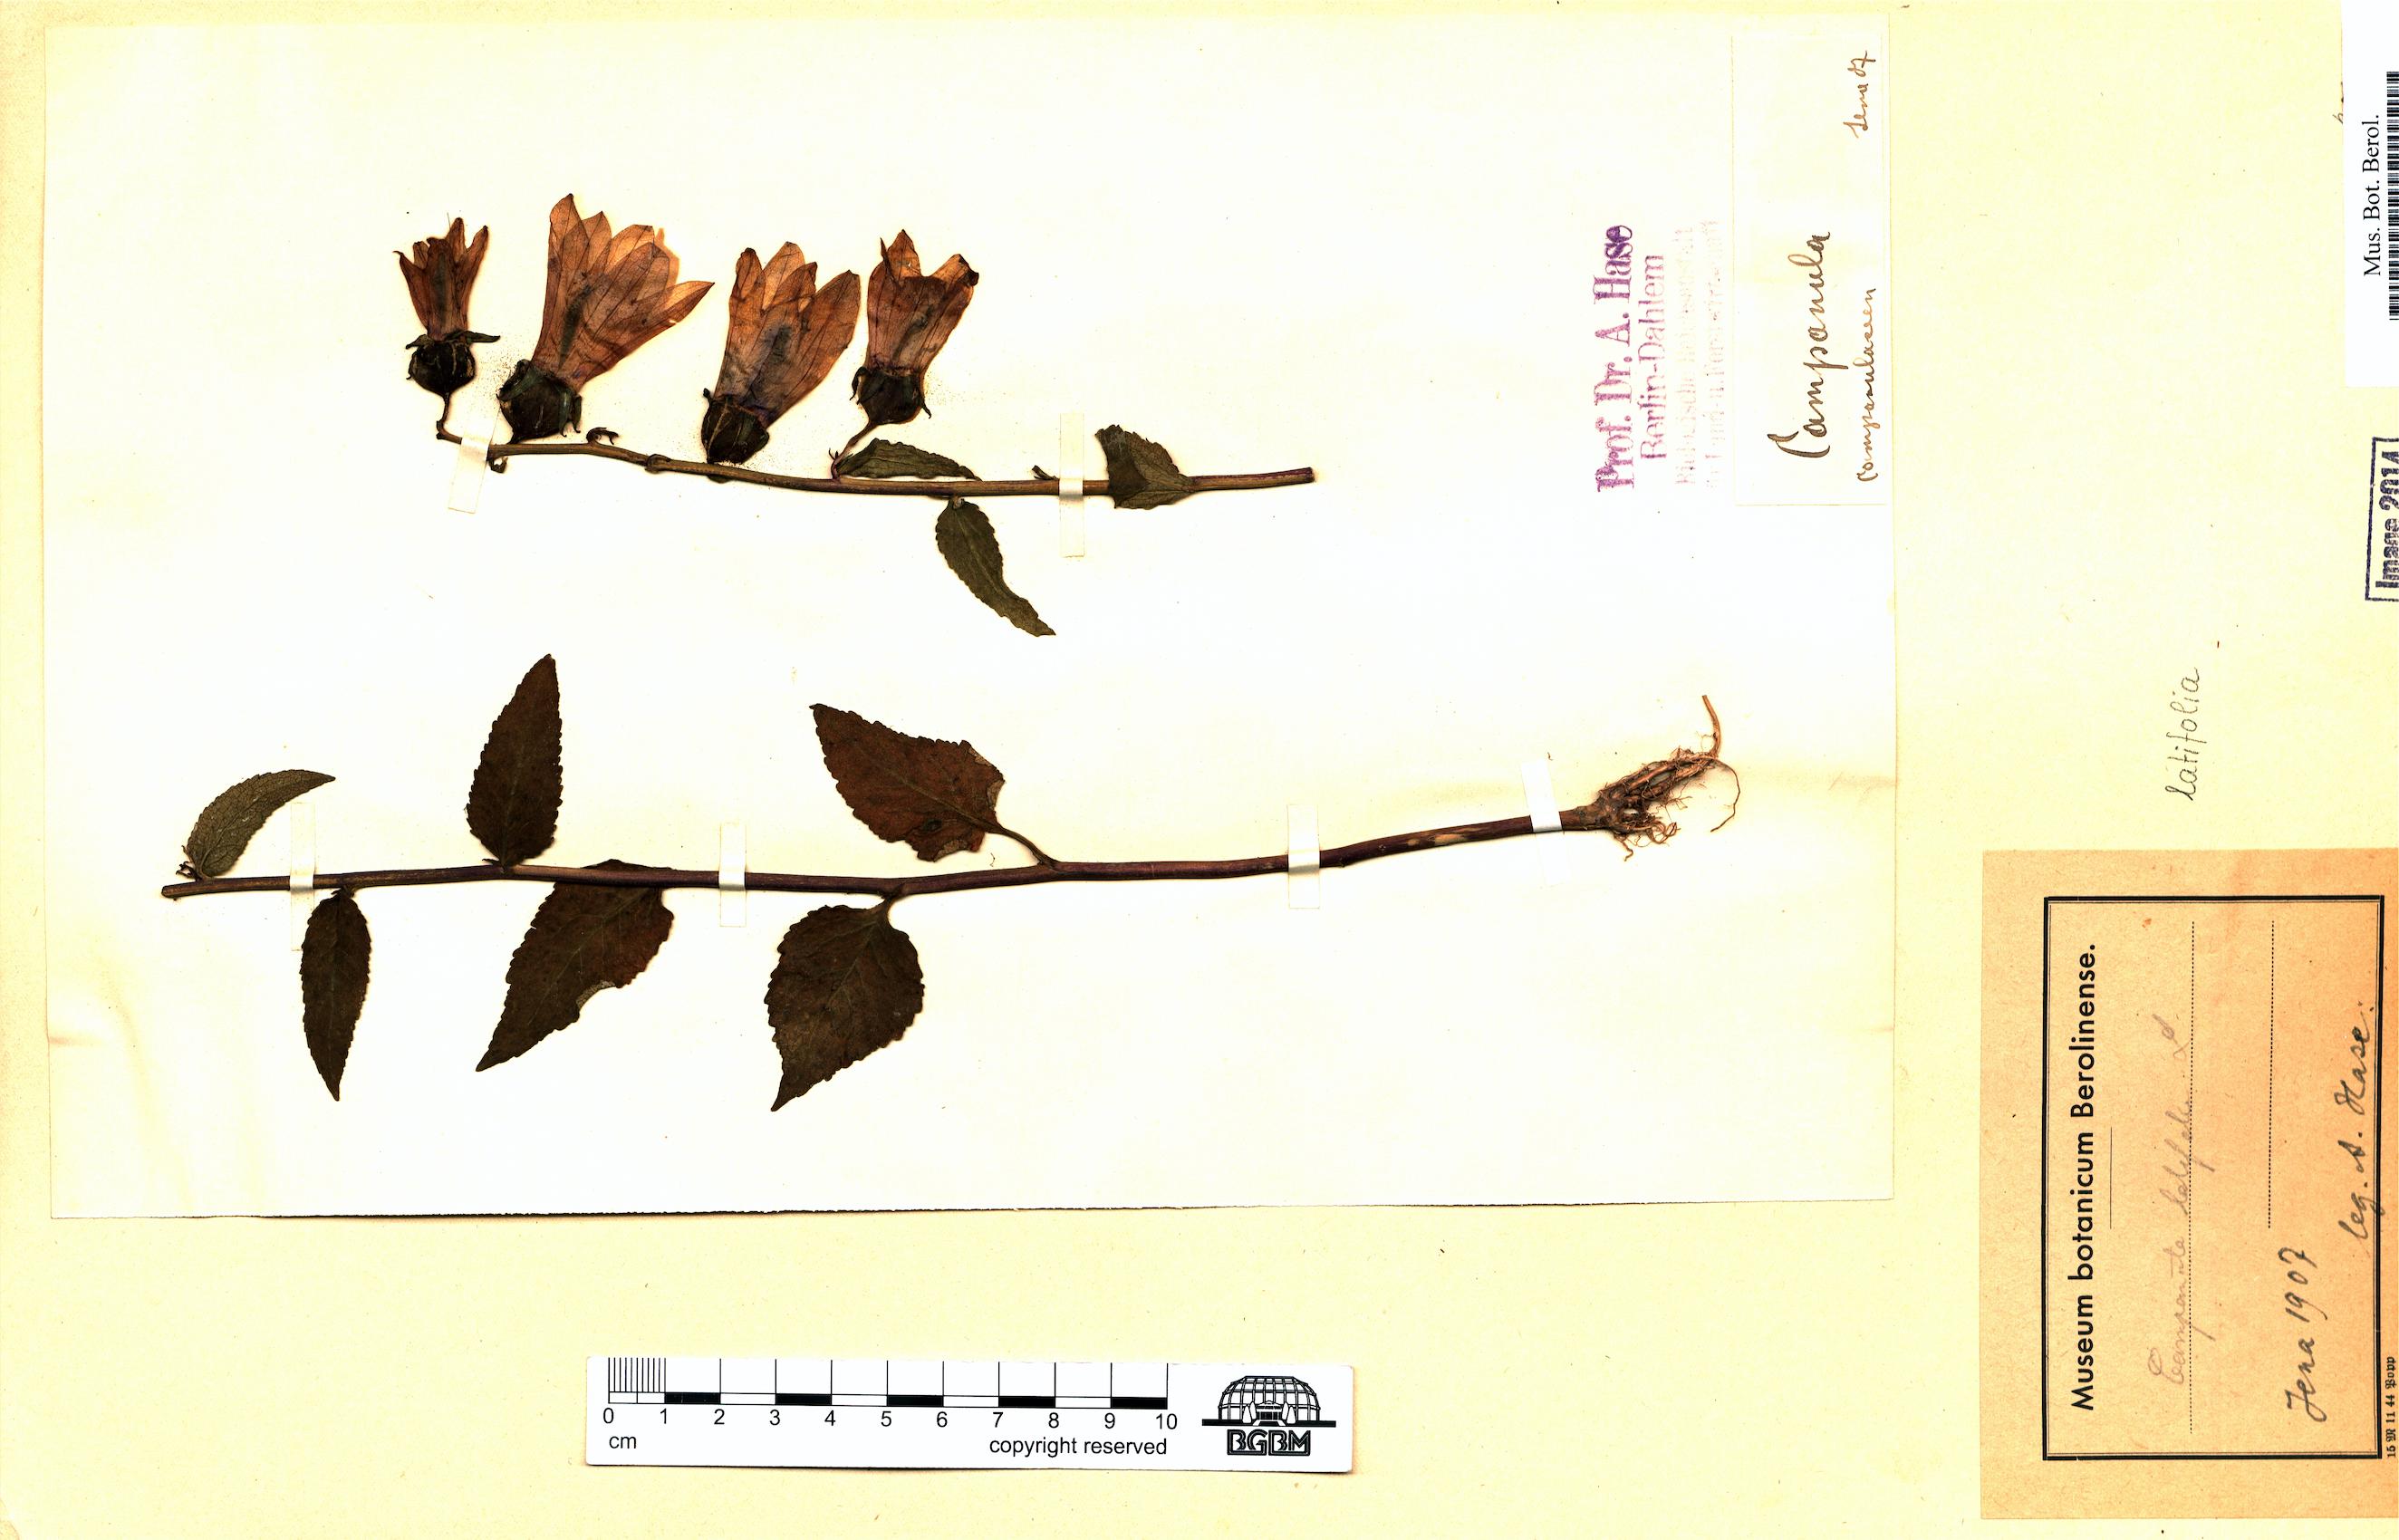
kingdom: Plantae
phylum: Tracheophyta
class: Magnoliopsida
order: Asterales
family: Campanulaceae
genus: Campanula
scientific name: Campanula latifolia
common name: Giant bellflower
